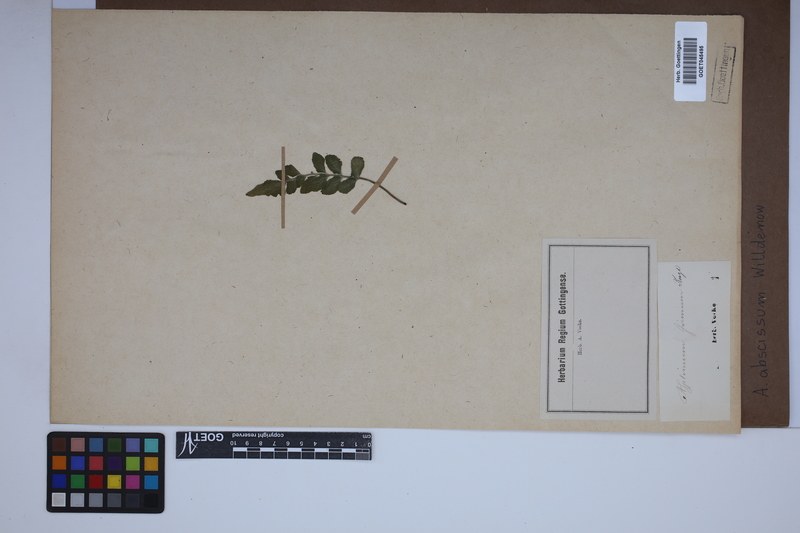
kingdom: Plantae
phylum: Tracheophyta
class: Polypodiopsida
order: Polypodiales
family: Aspleniaceae
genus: Asplenium
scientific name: Asplenium abscissum
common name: Cutleaf spleenwort
